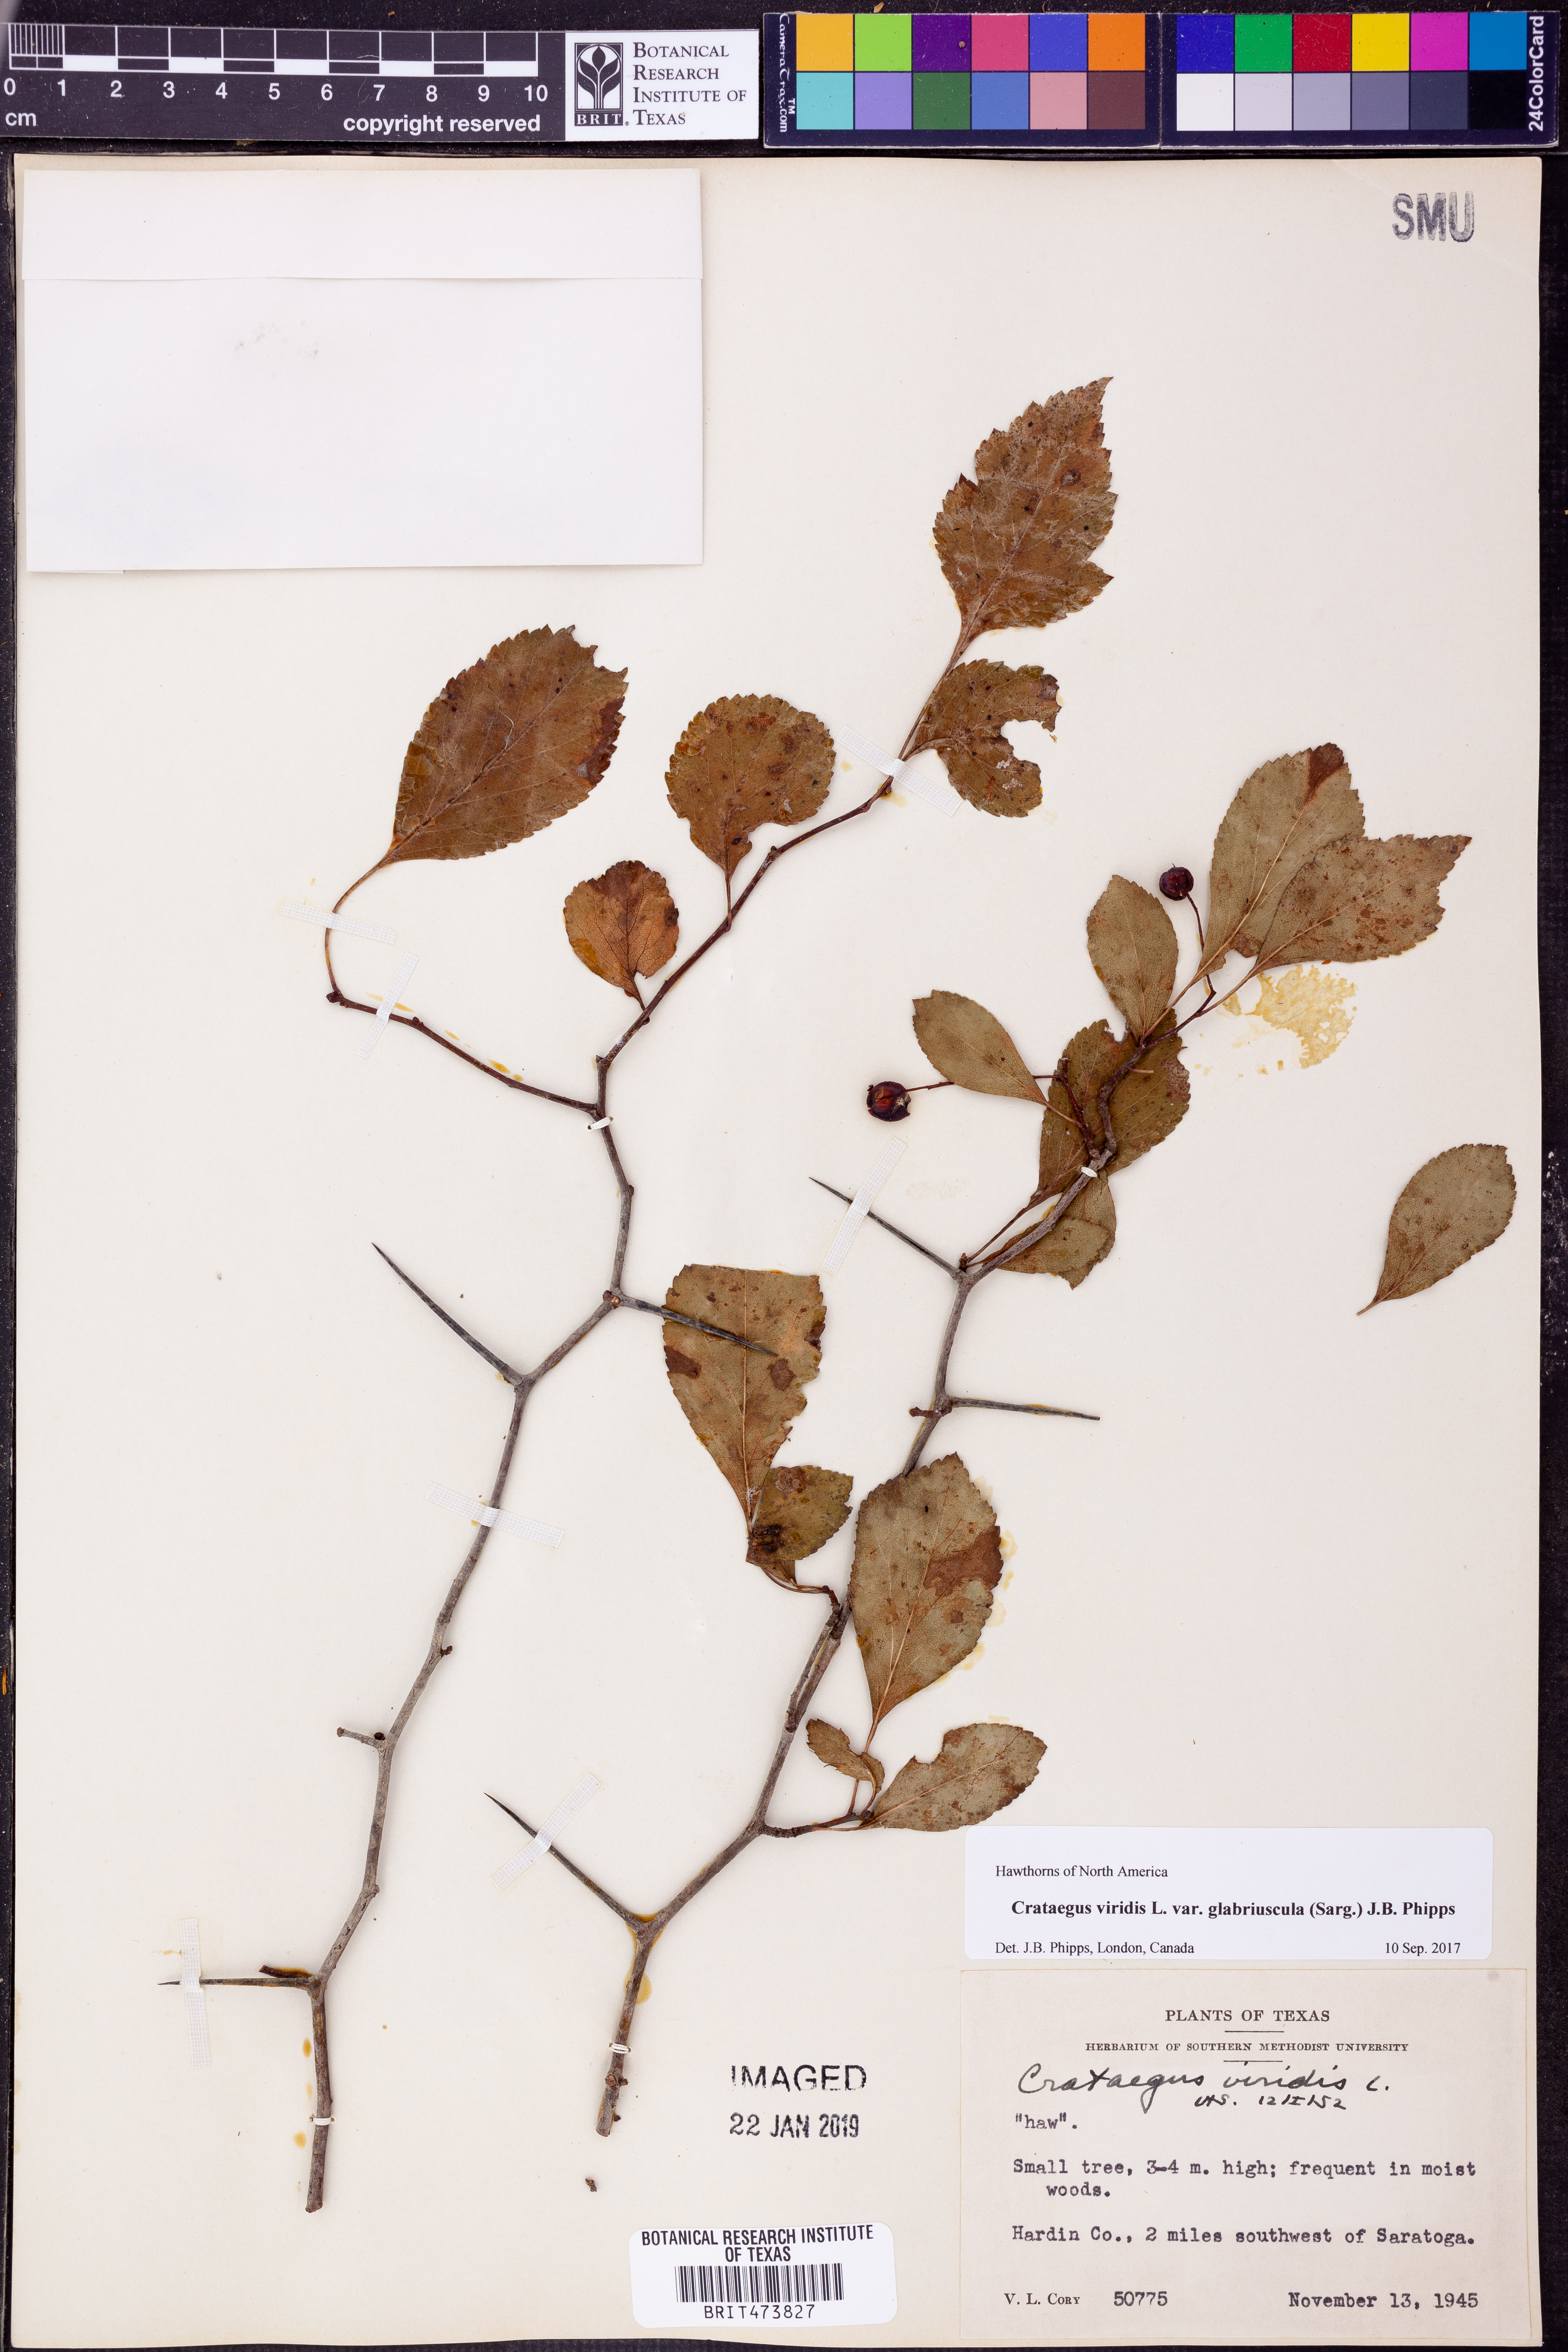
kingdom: Plantae
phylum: Tracheophyta
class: Magnoliopsida
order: Rosales
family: Rosaceae
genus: Crataegus
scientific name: Crataegus viridis
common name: Southernthorn
